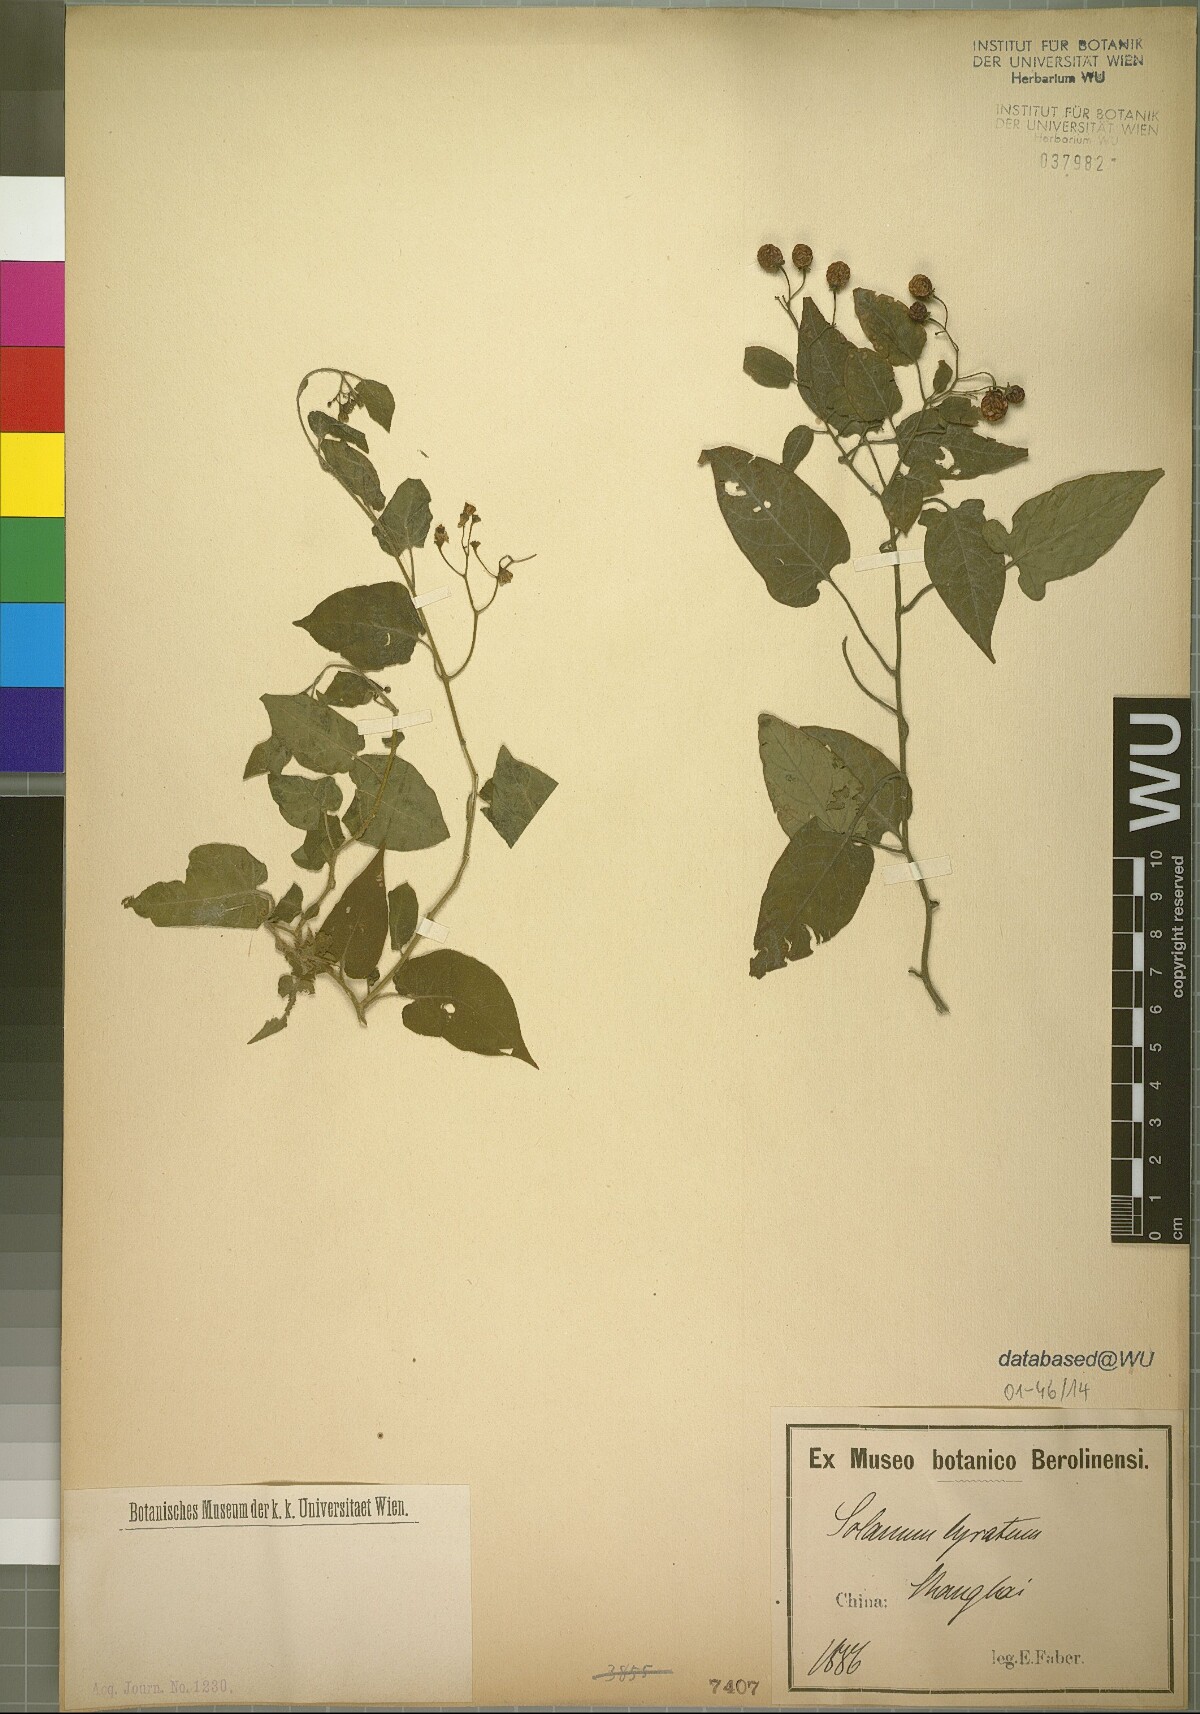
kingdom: Plantae
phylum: Tracheophyta
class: Magnoliopsida
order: Solanales
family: Solanaceae
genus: Solanum
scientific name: Solanum lyratum
